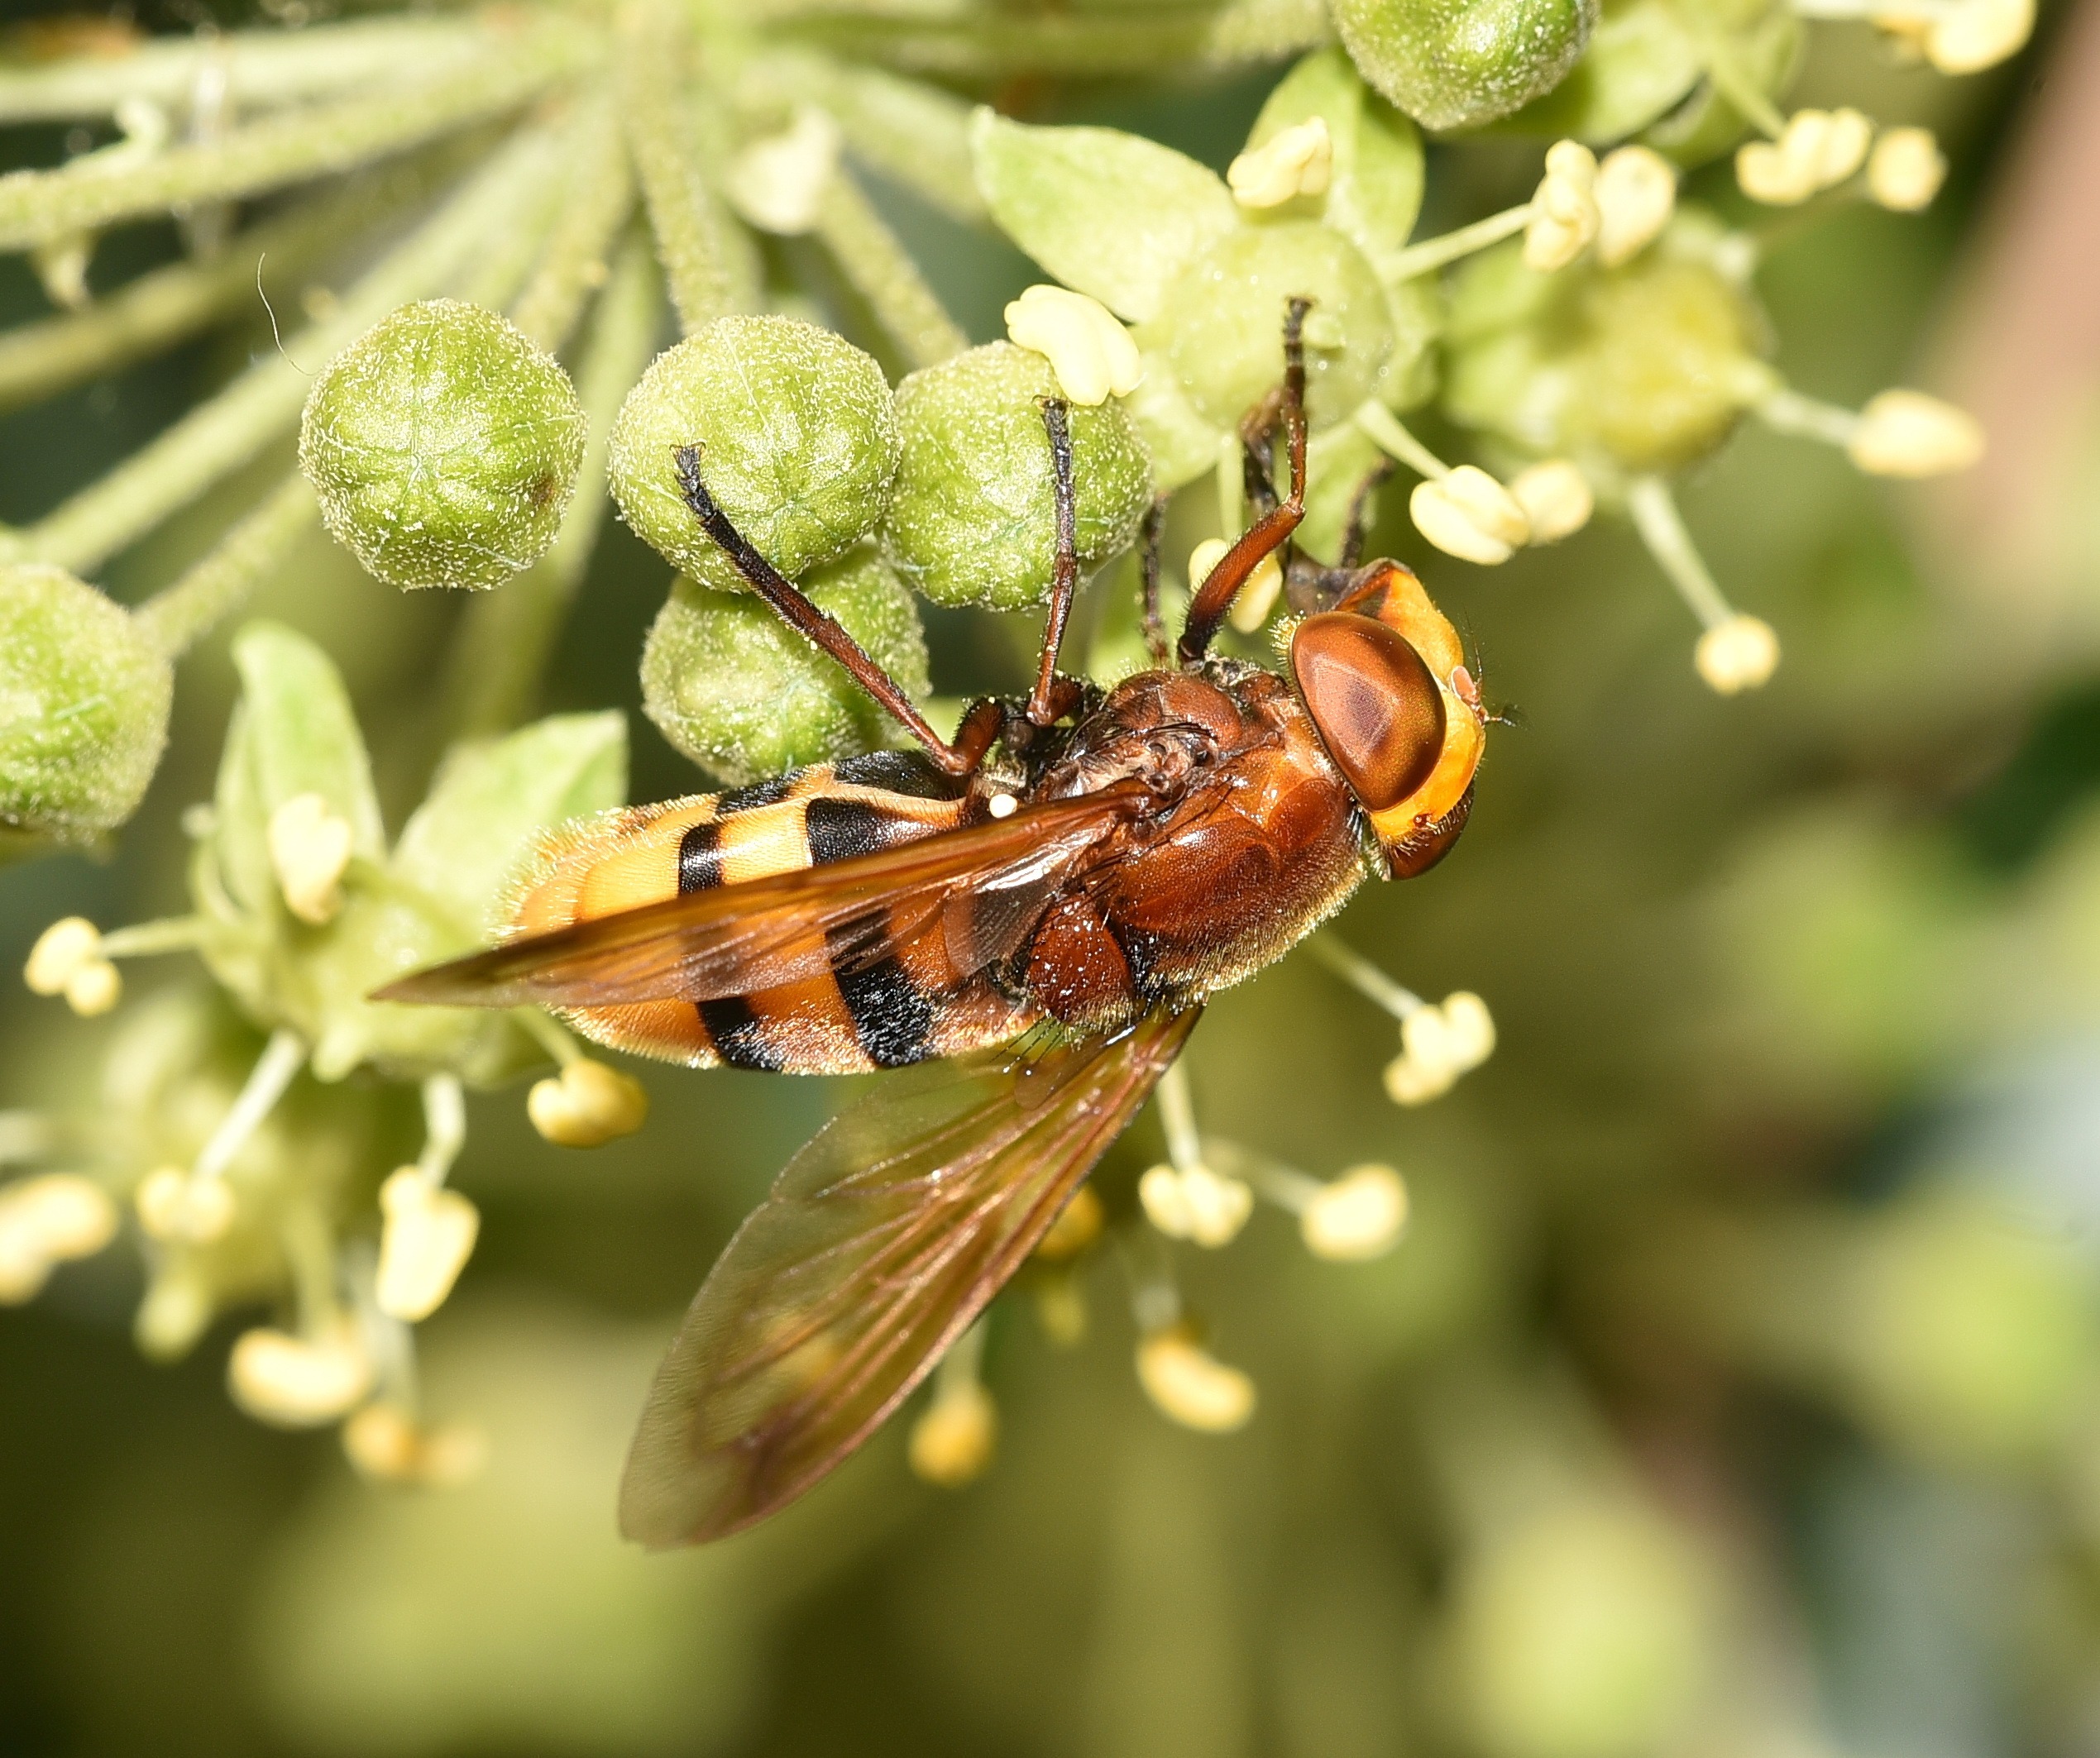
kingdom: Animalia
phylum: Arthropoda
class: Insecta
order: Diptera
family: Syrphidae
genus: Volucella
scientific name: Volucella zonaria
